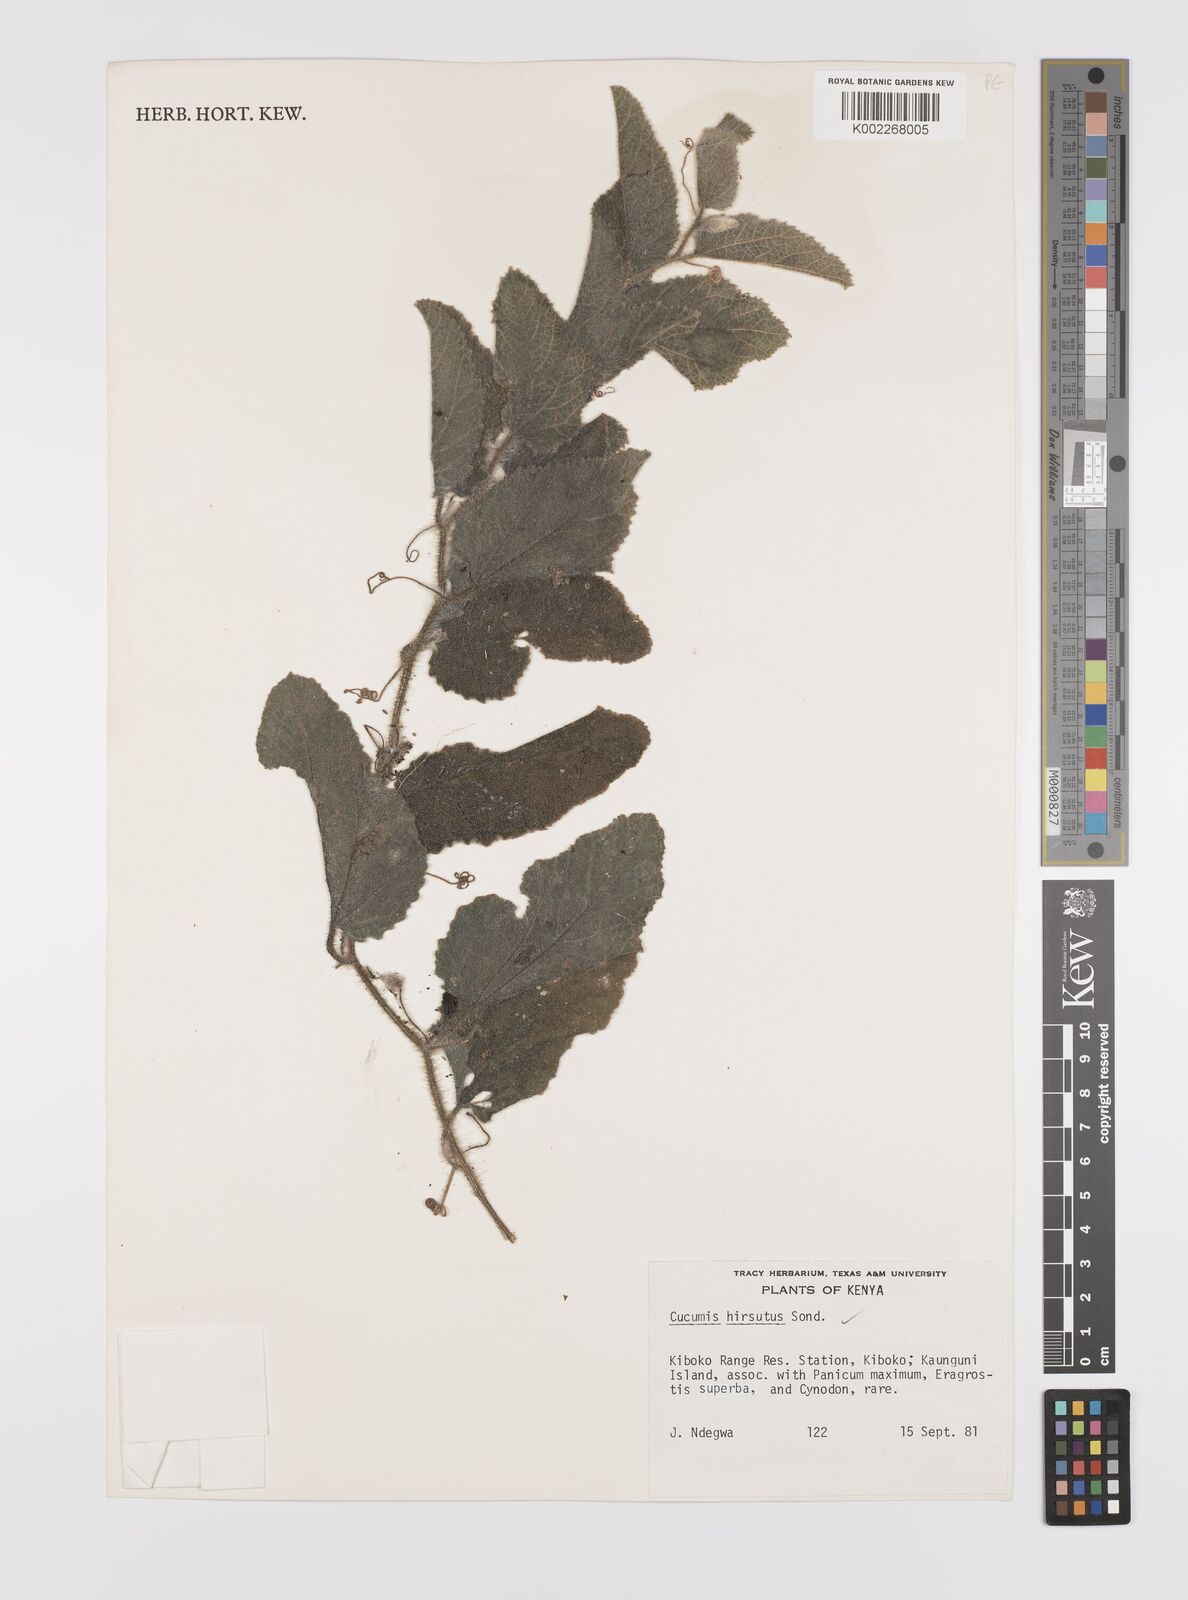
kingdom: Plantae
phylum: Tracheophyta
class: Magnoliopsida
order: Cucurbitales
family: Cucurbitaceae
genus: Cucumis
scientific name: Cucumis hirsutus
